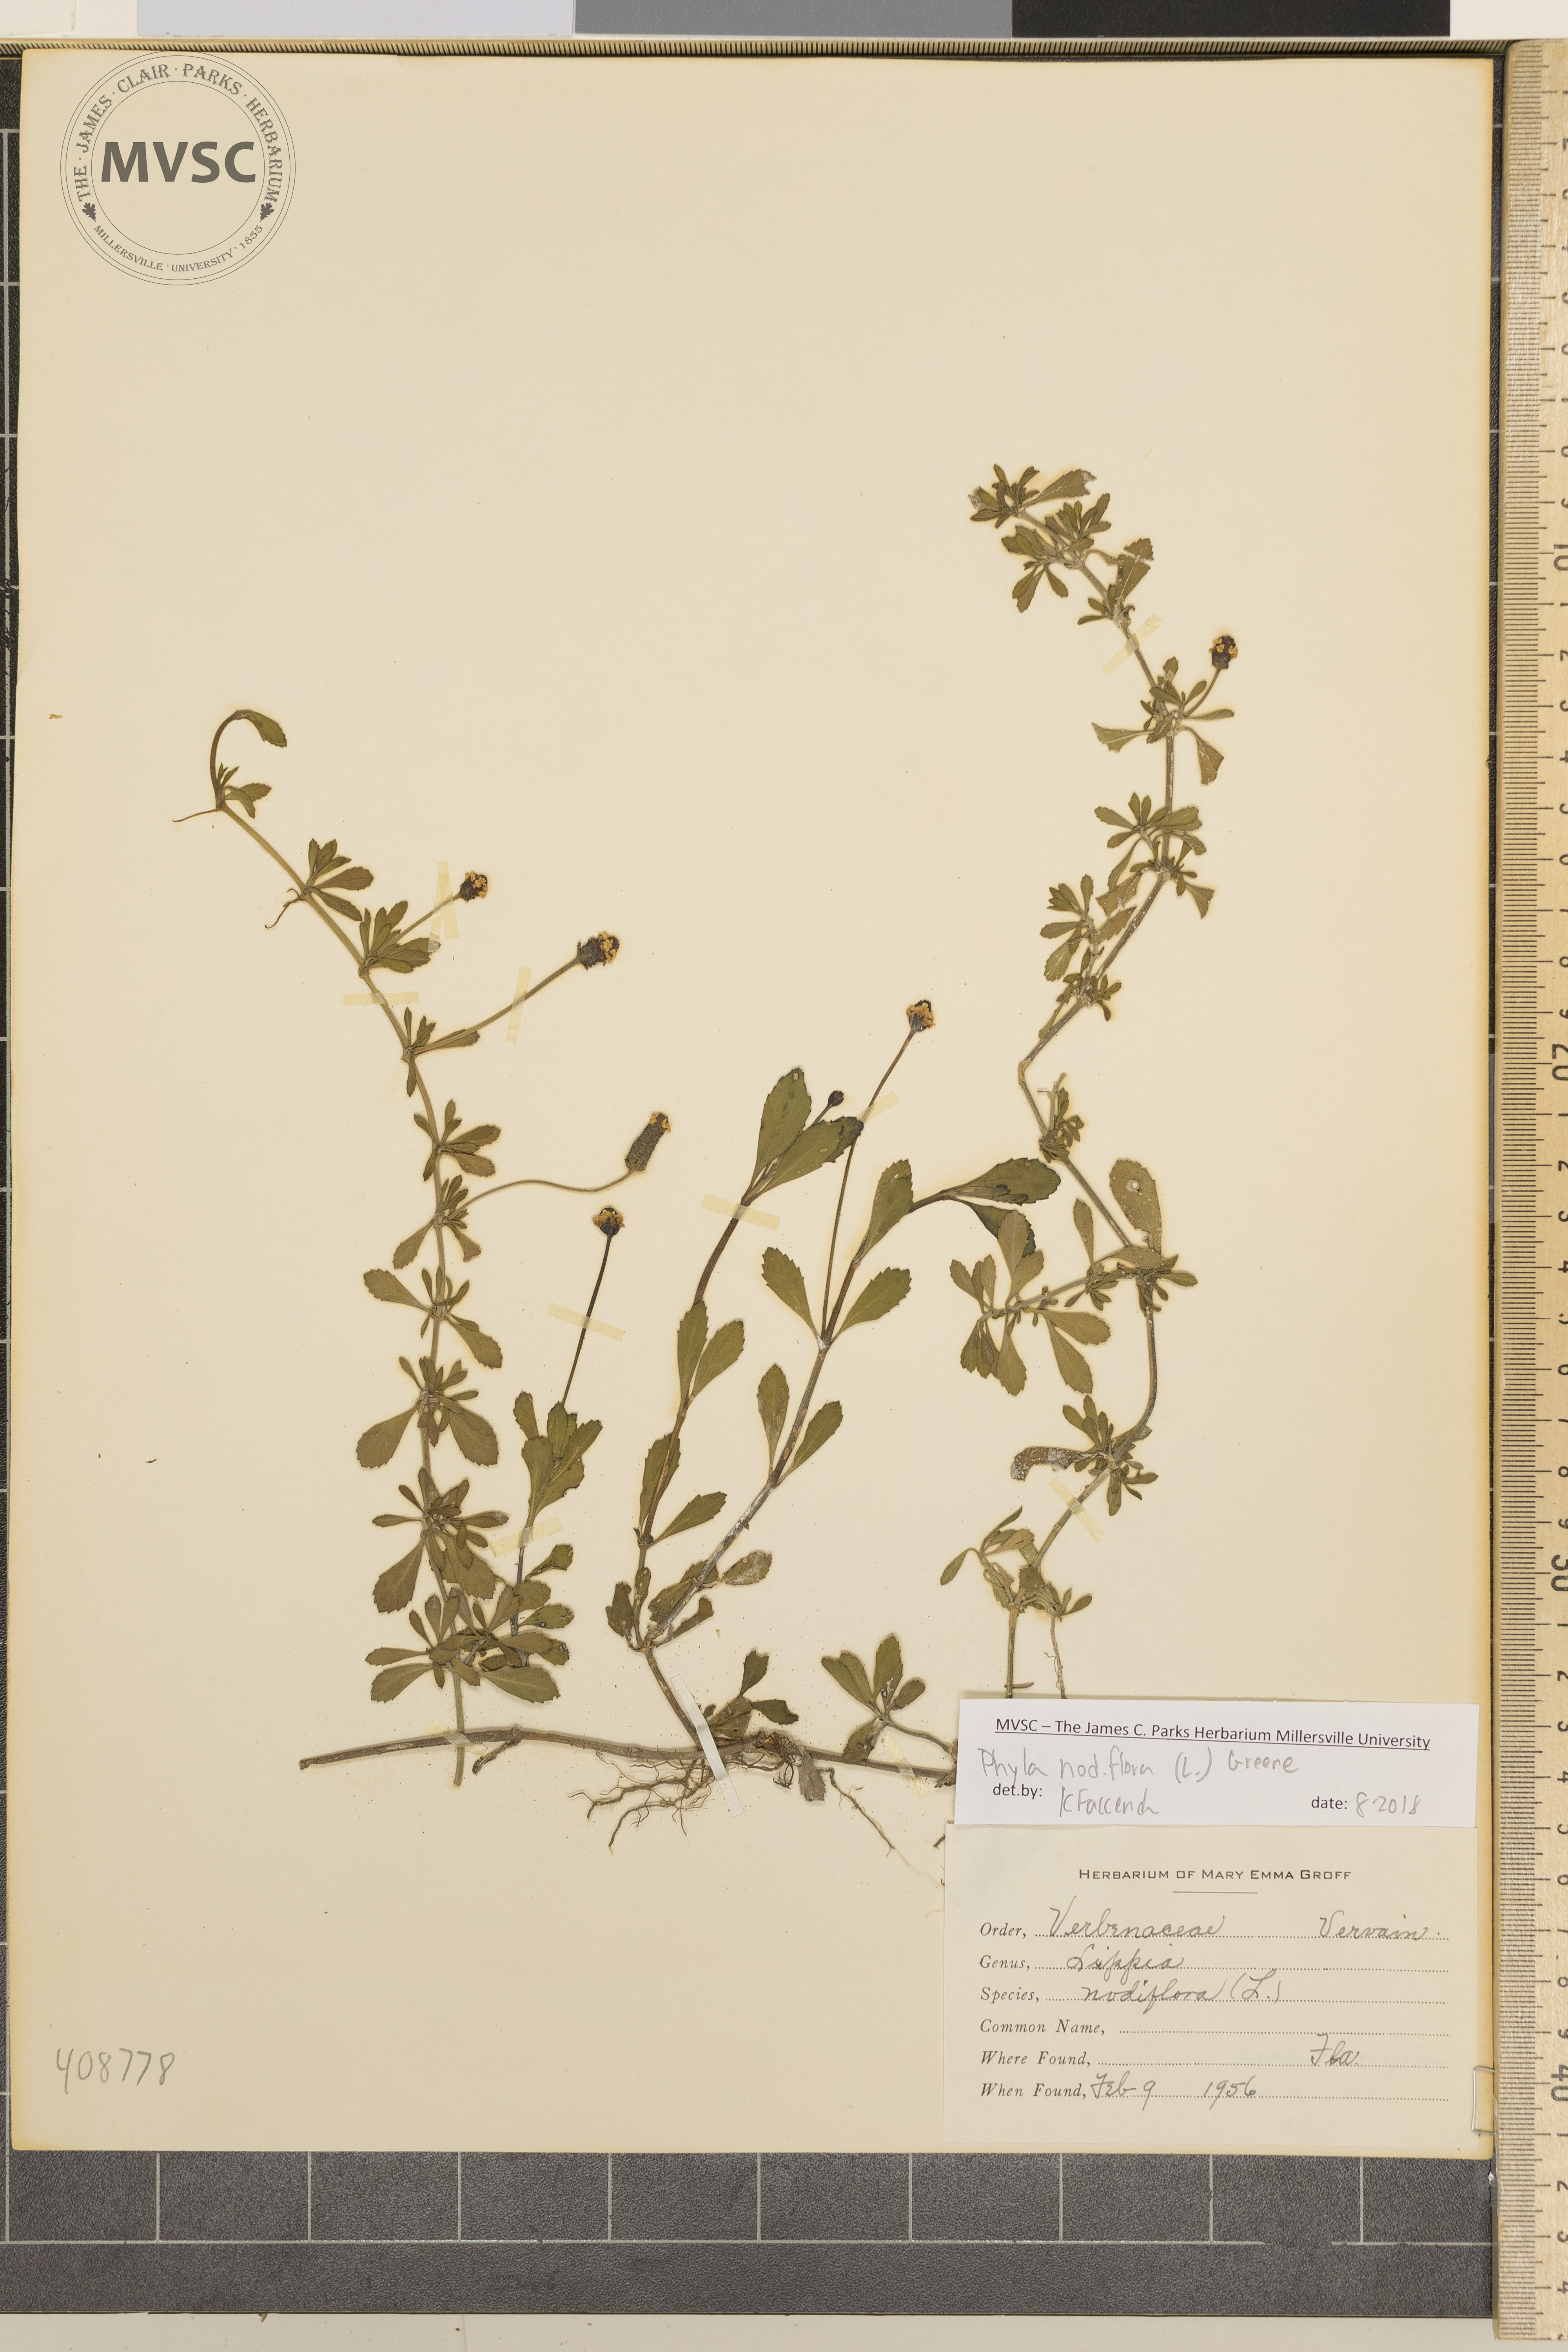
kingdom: Plantae
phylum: Tracheophyta
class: Magnoliopsida
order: Lamiales
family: Verbenaceae
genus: Phyla
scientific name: Phyla nodiflora
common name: Frogfruit
